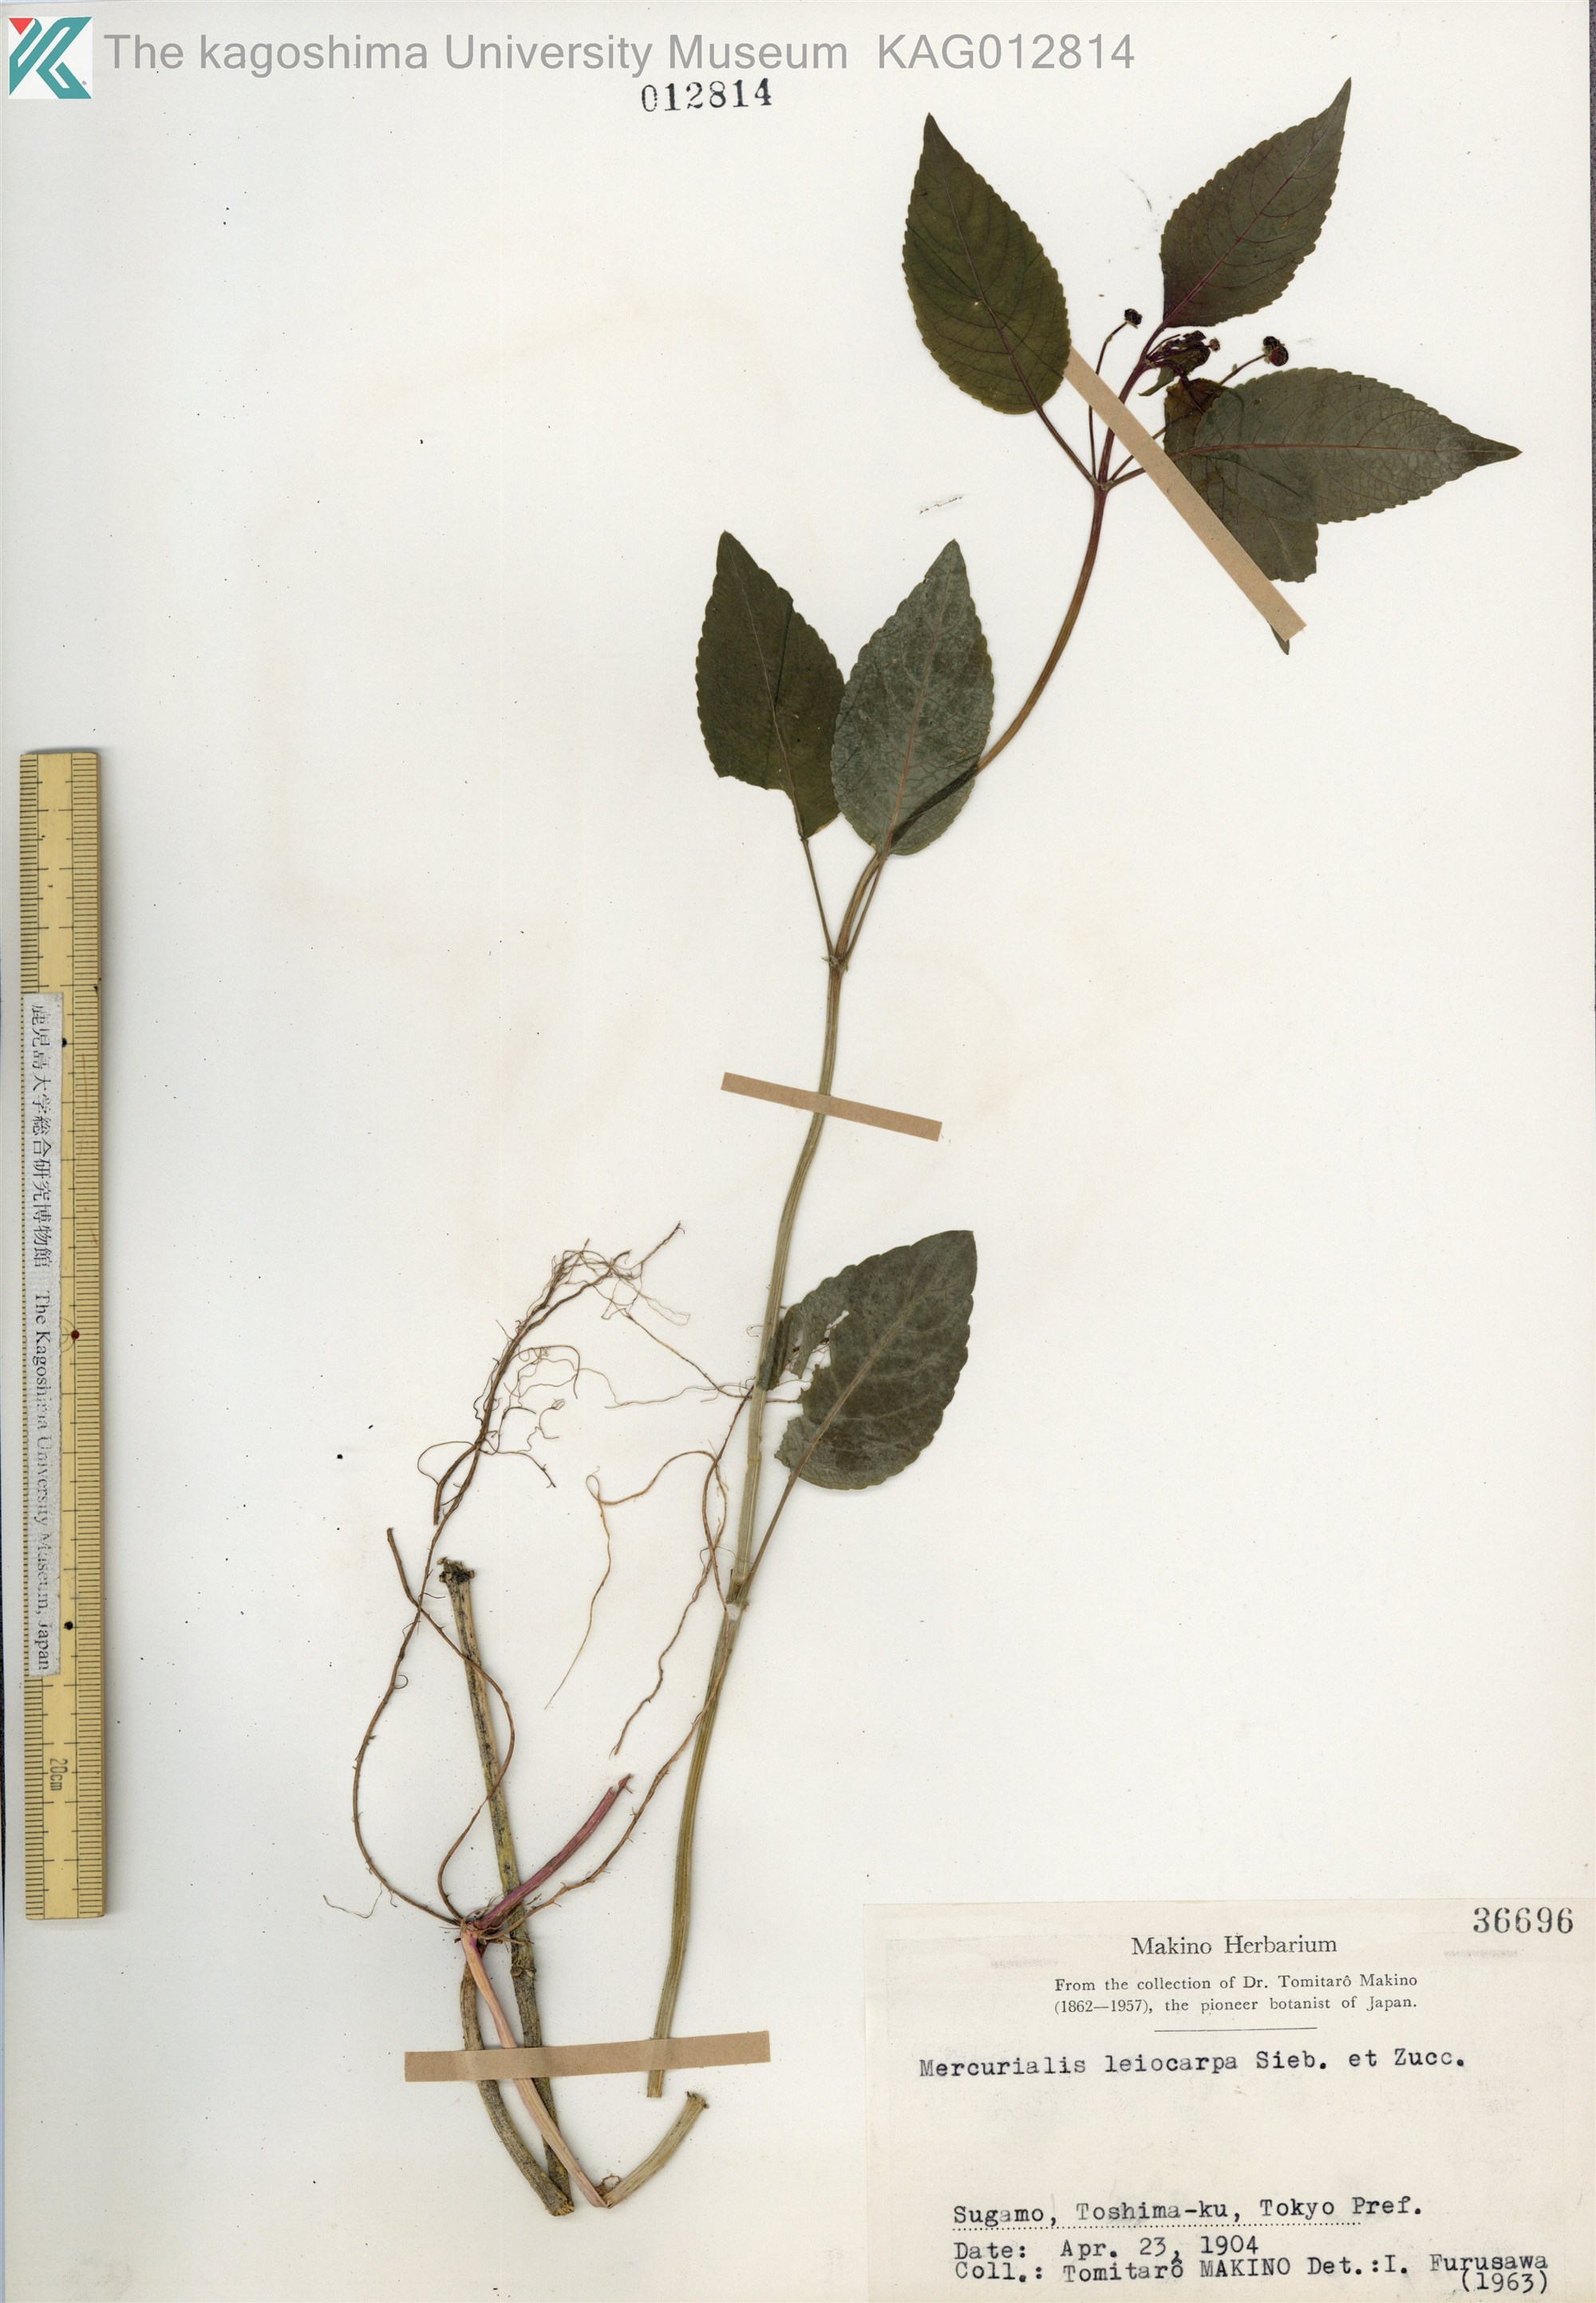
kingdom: Plantae
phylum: Tracheophyta
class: Magnoliopsida
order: Malpighiales
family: Euphorbiaceae
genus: Mercurialis
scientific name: Mercurialis leiocarpa
